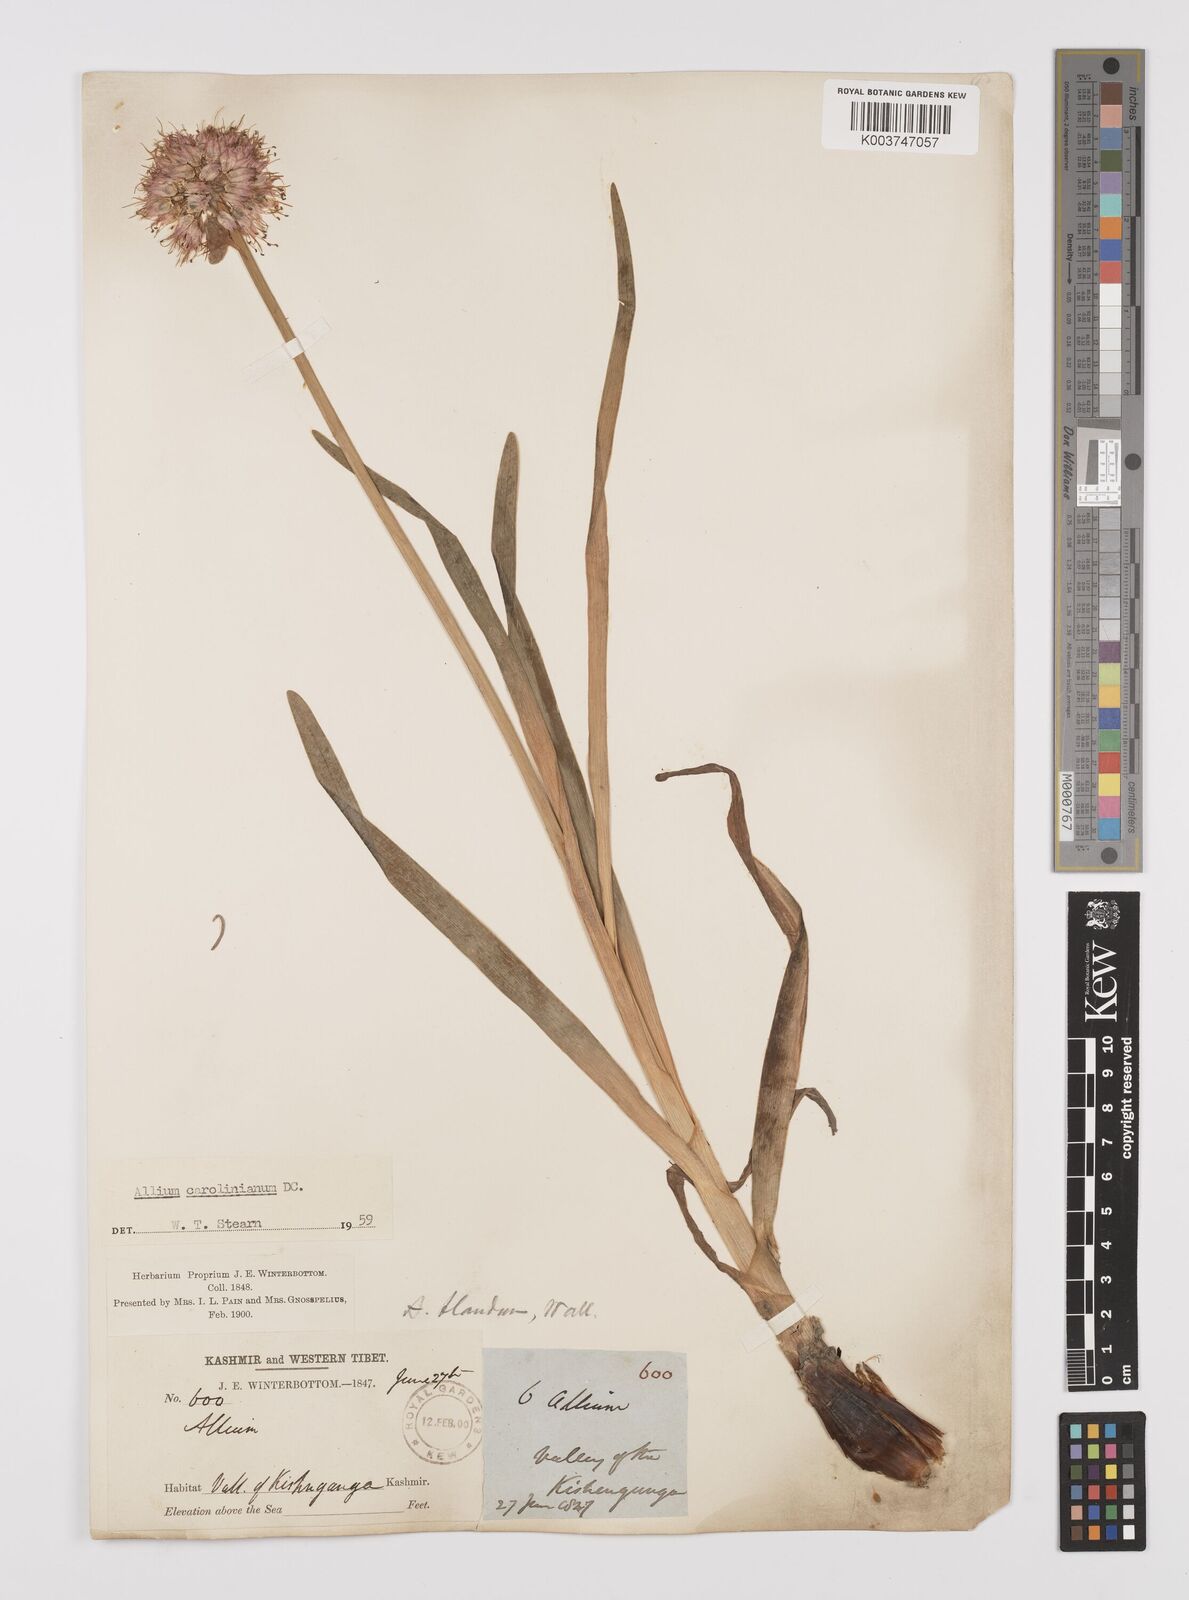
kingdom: Plantae
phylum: Tracheophyta
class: Liliopsida
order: Asparagales
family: Amaryllidaceae
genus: Allium
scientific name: Allium blandum
